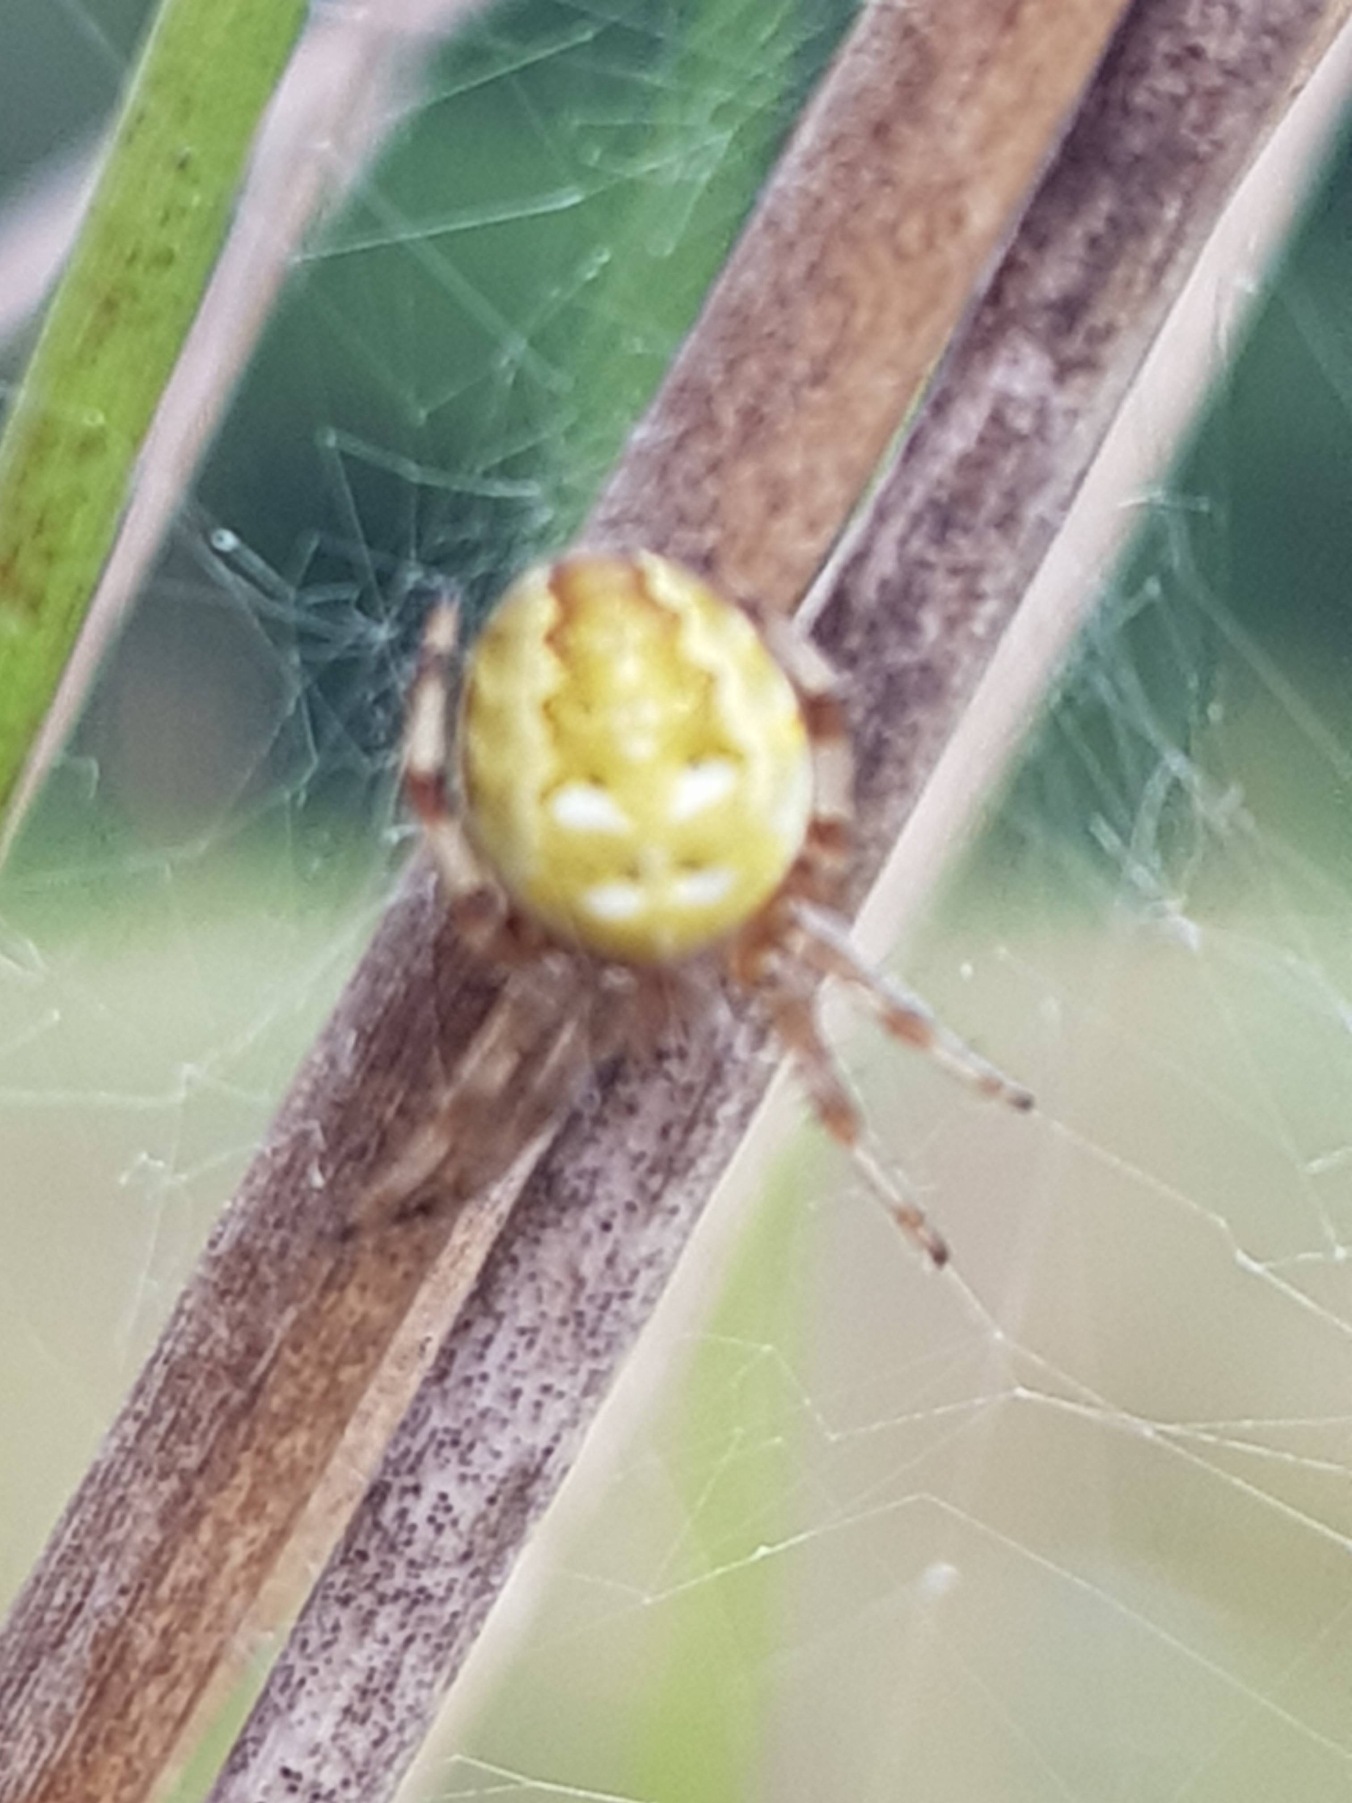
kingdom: Animalia
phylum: Arthropoda
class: Arachnida
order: Araneae
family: Araneidae
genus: Araneus
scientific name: Araneus quadratus
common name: Kvadratedderkop
